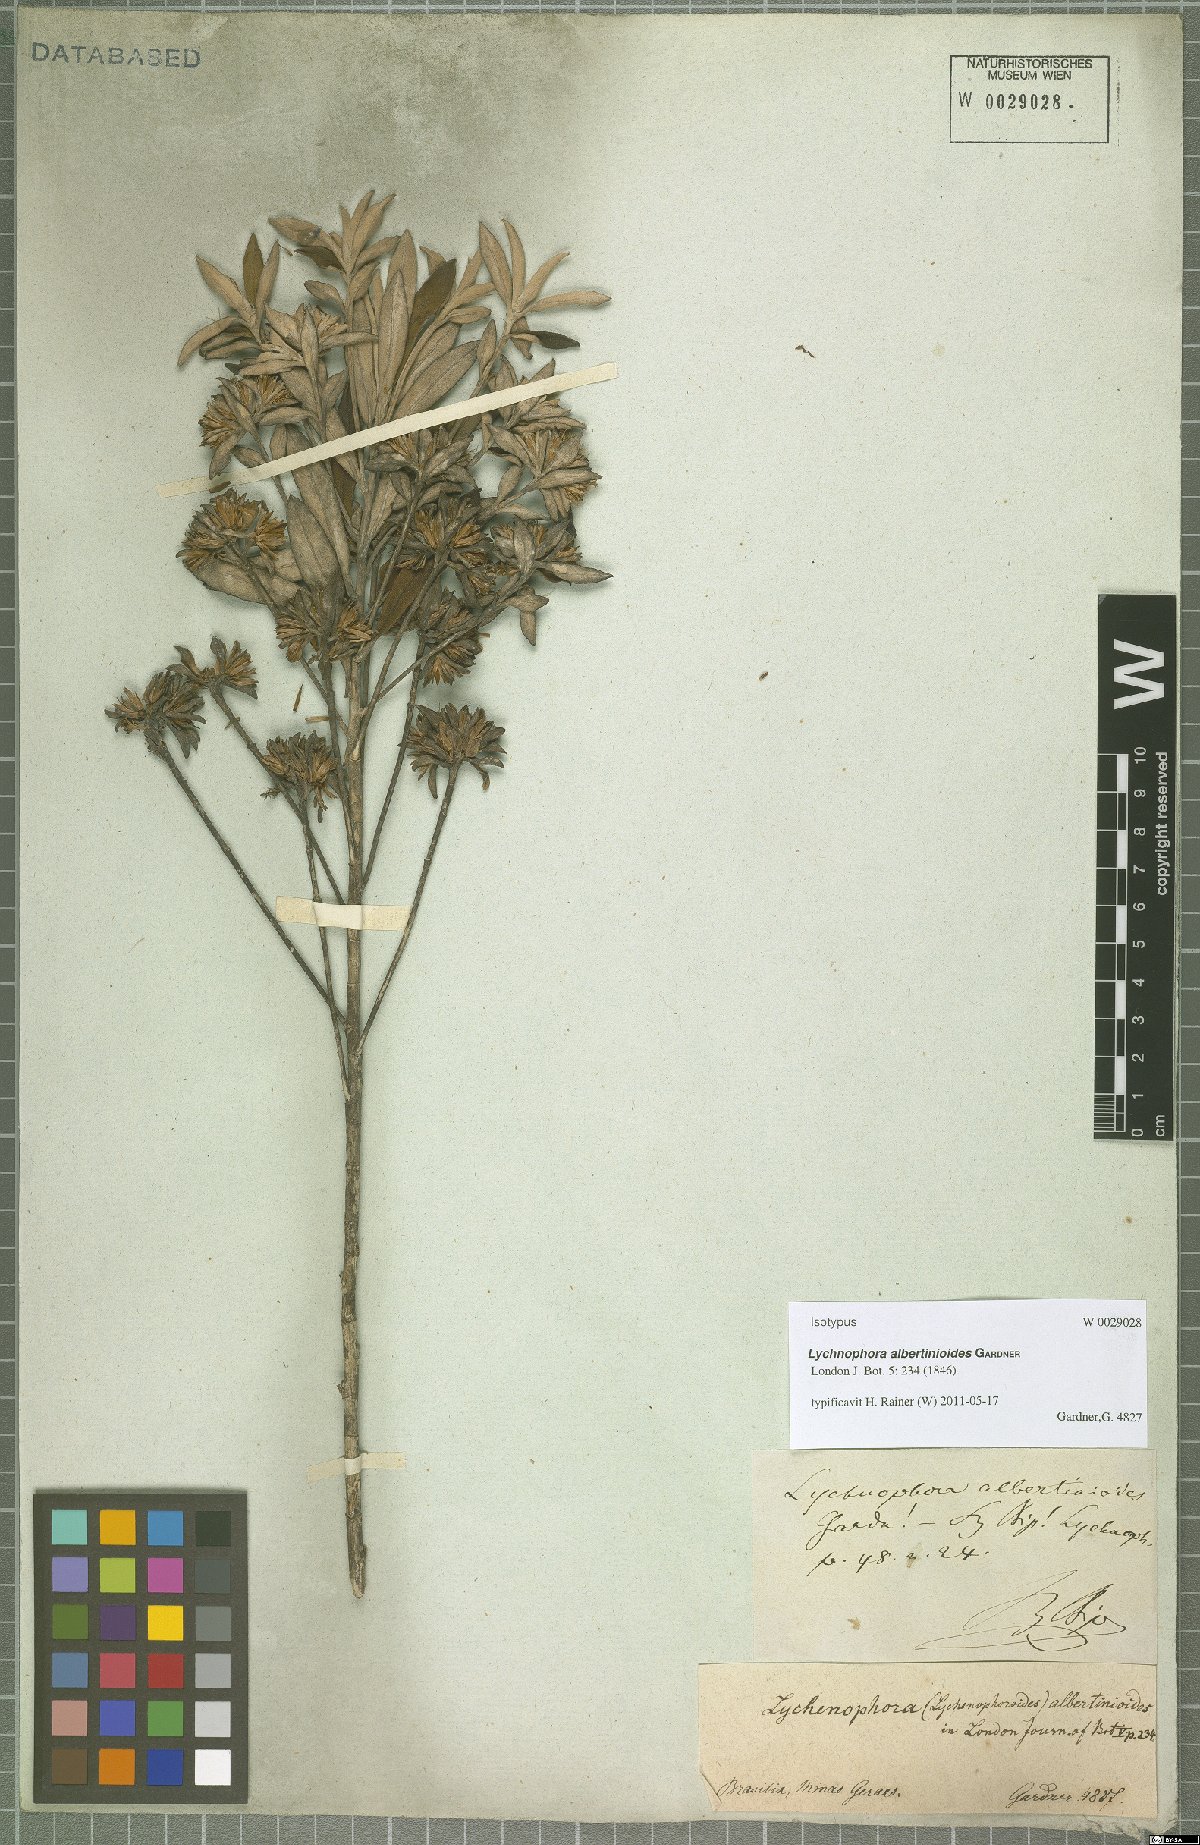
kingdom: Plantae
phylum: Tracheophyta
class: Magnoliopsida
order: Asterales
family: Asteraceae
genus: Lychnophora
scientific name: Lychnophora albertinioides
